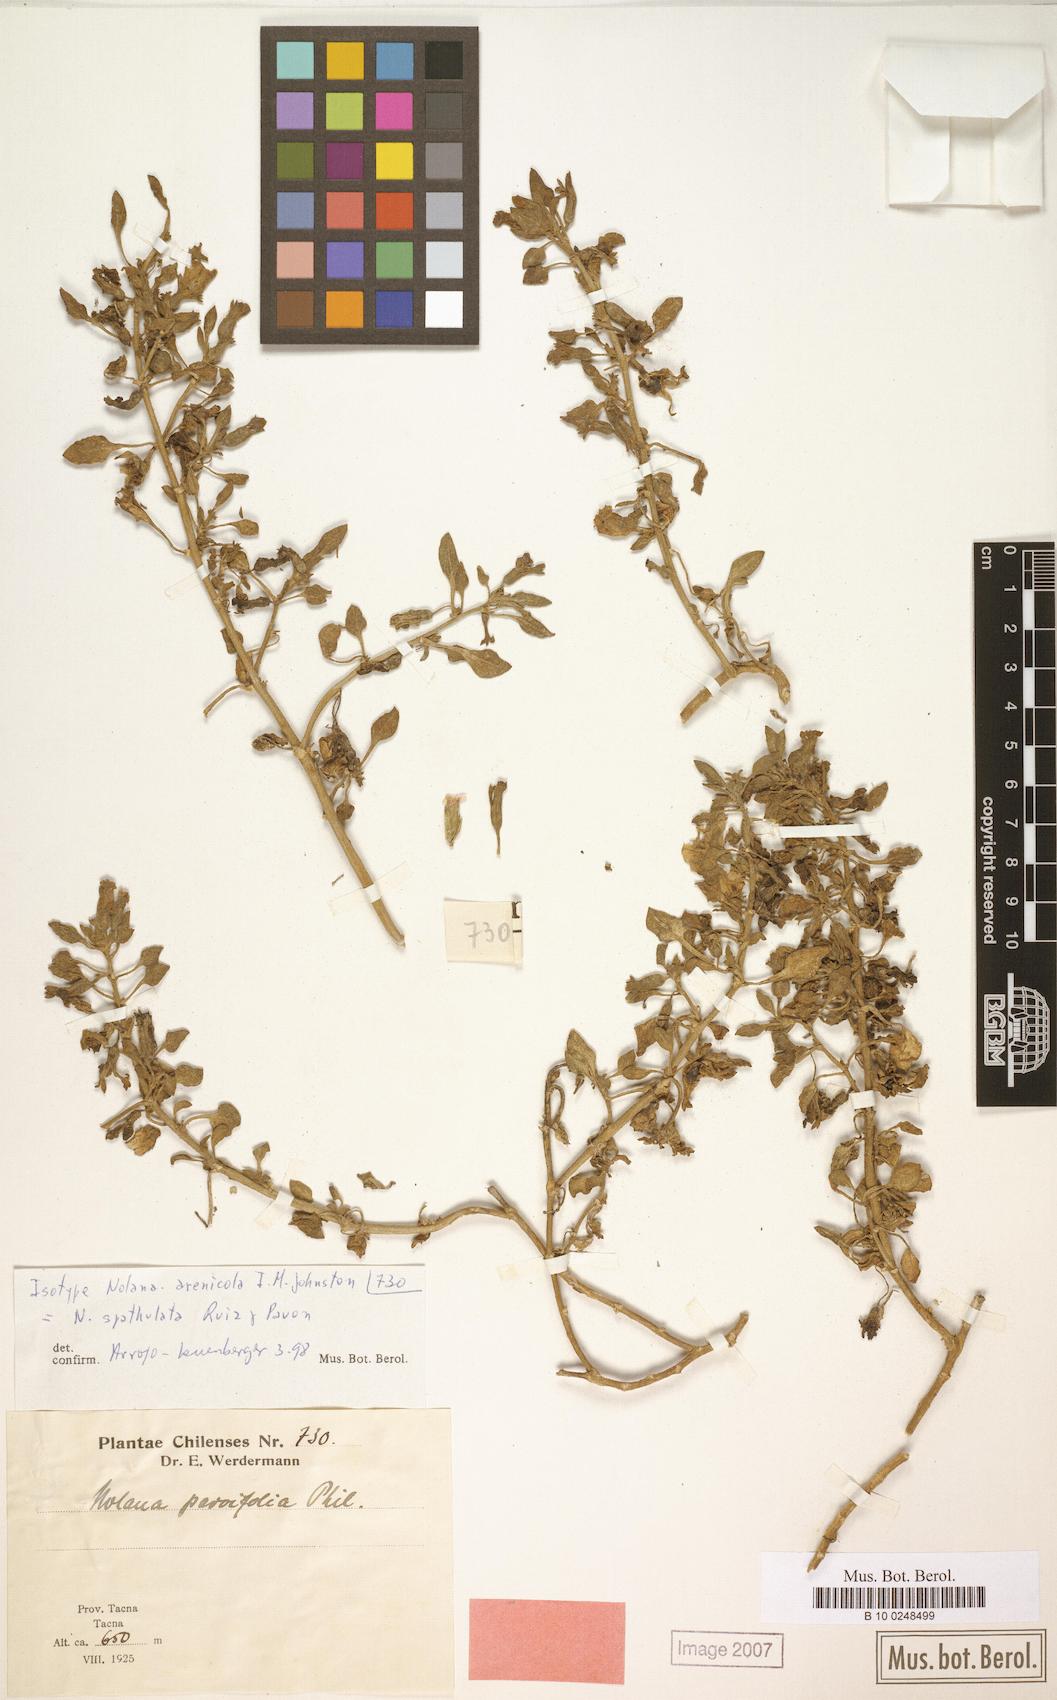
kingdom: Plantae
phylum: Tracheophyta
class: Magnoliopsida
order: Solanales
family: Solanaceae
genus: Nolana
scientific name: Nolana humifusa
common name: Trailing chilean-bellflower
